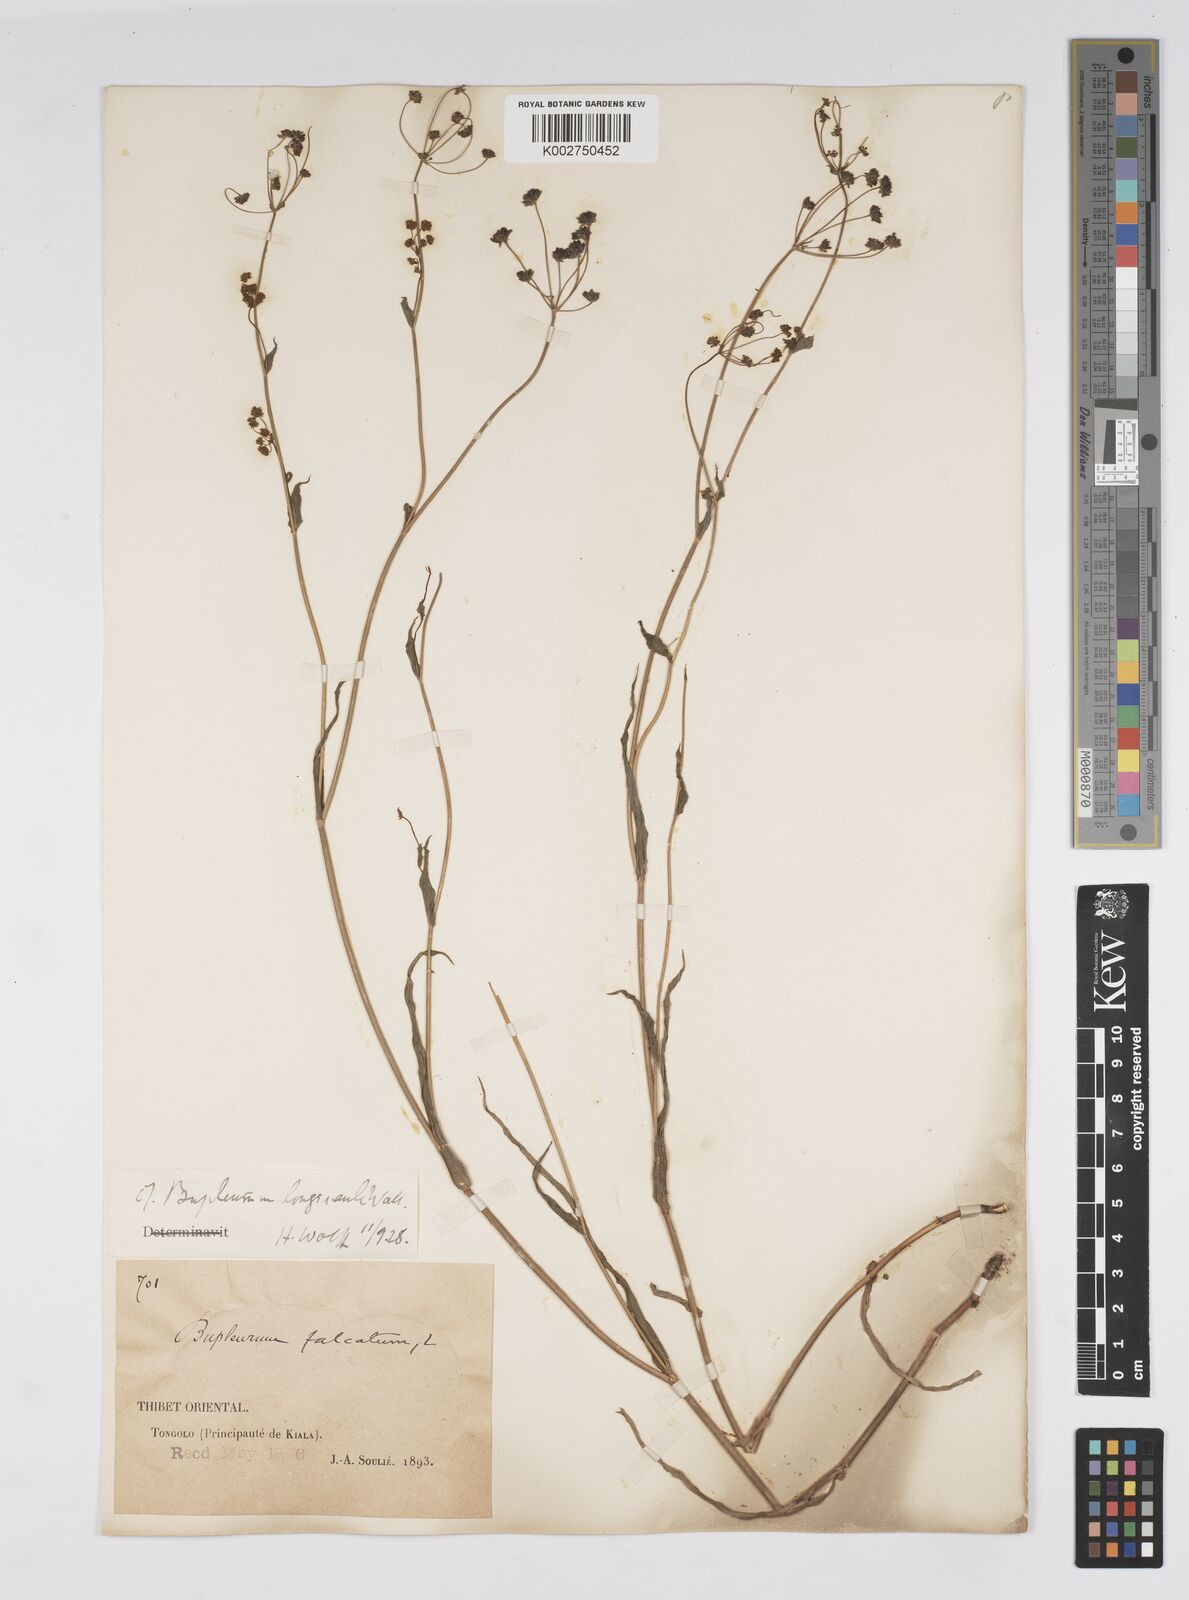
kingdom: Plantae
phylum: Tracheophyta
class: Magnoliopsida
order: Apiales
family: Apiaceae
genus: Bupleurum
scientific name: Bupleurum longicaule
